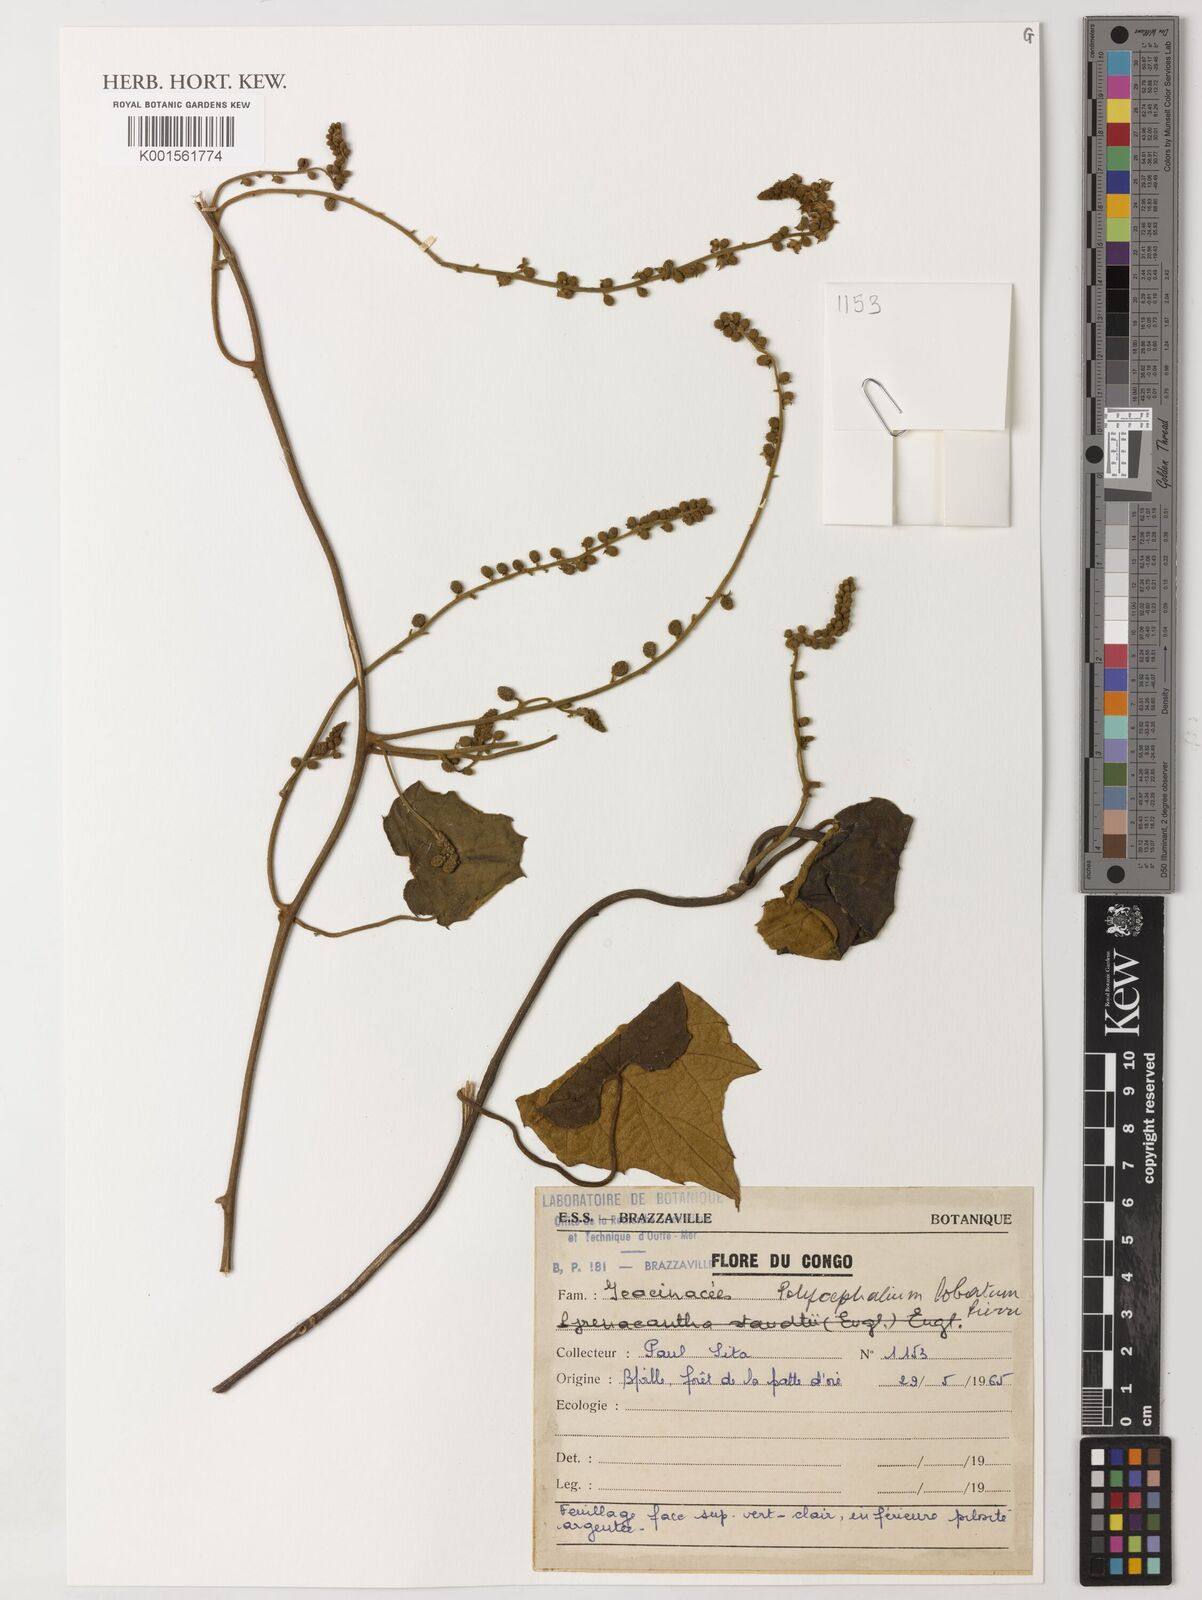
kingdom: Plantae
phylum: Tracheophyta
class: Magnoliopsida
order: Icacinales
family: Icacinaceae
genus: Pyrenacantha
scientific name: Pyrenacantha lobata
